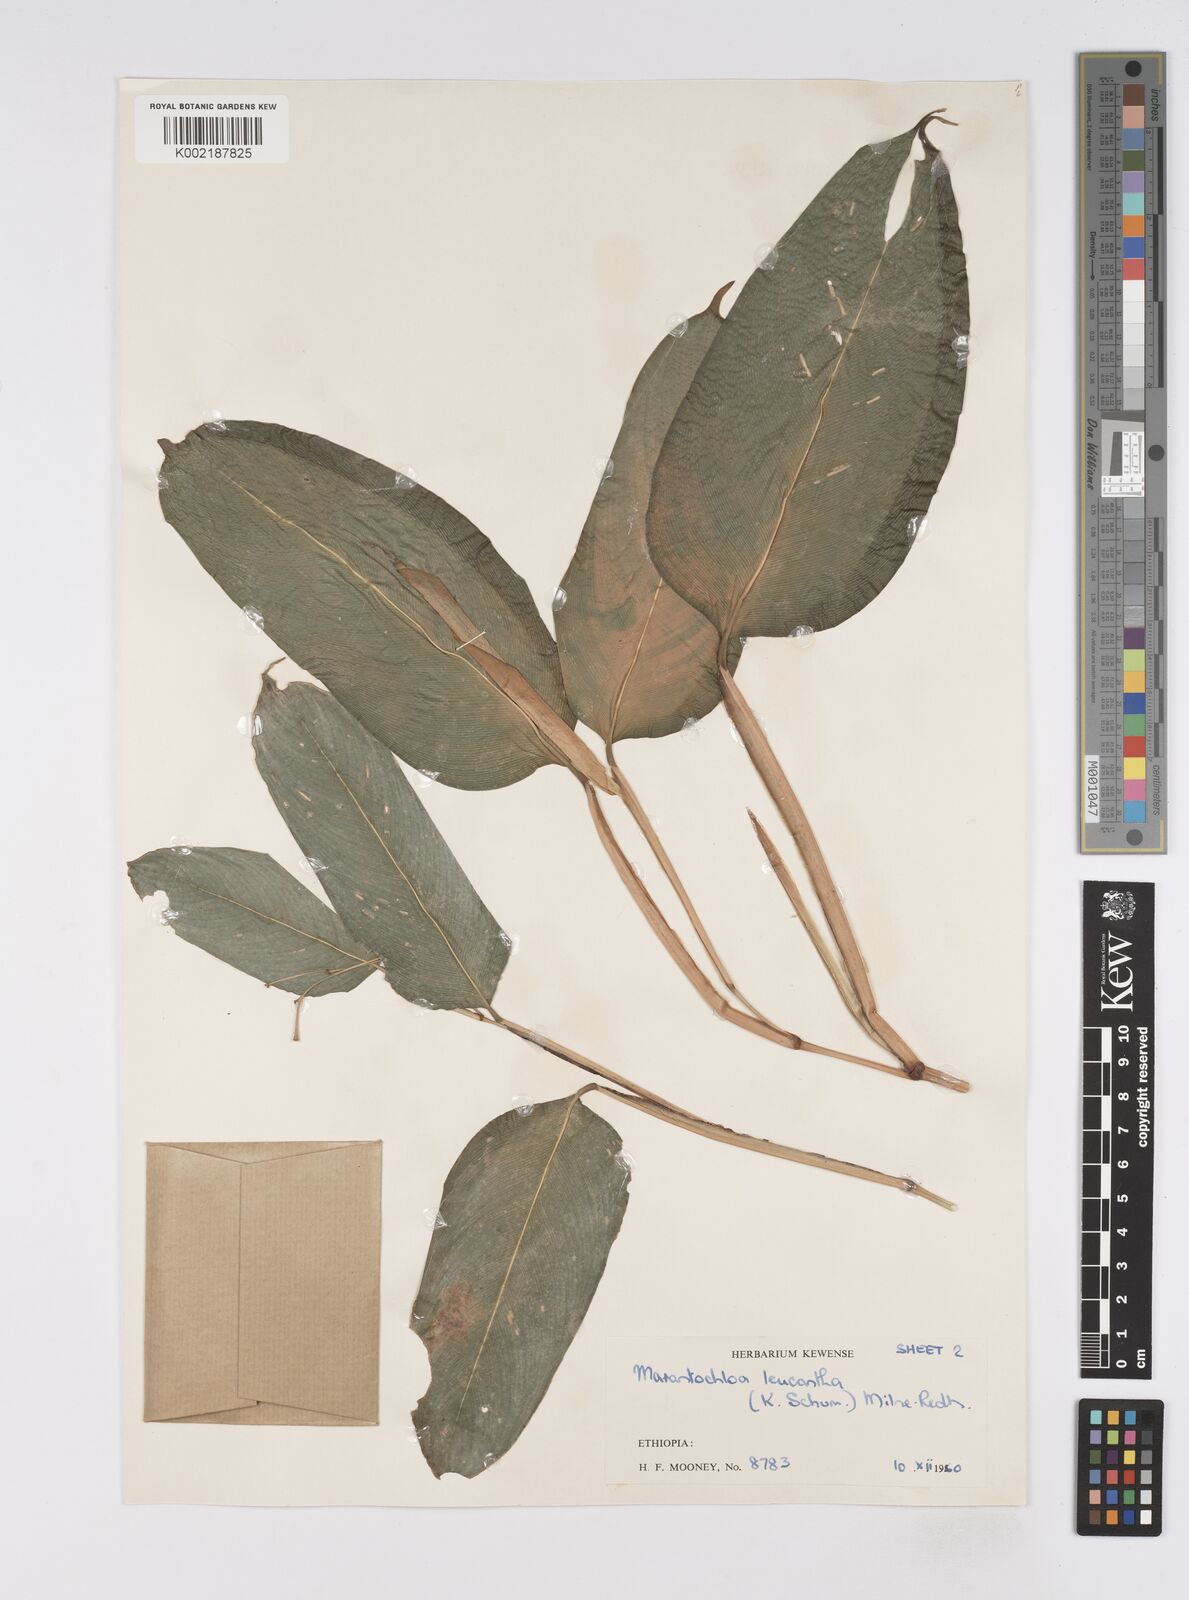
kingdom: Plantae
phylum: Tracheophyta
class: Liliopsida
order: Zingiberales
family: Marantaceae
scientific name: Marantaceae
